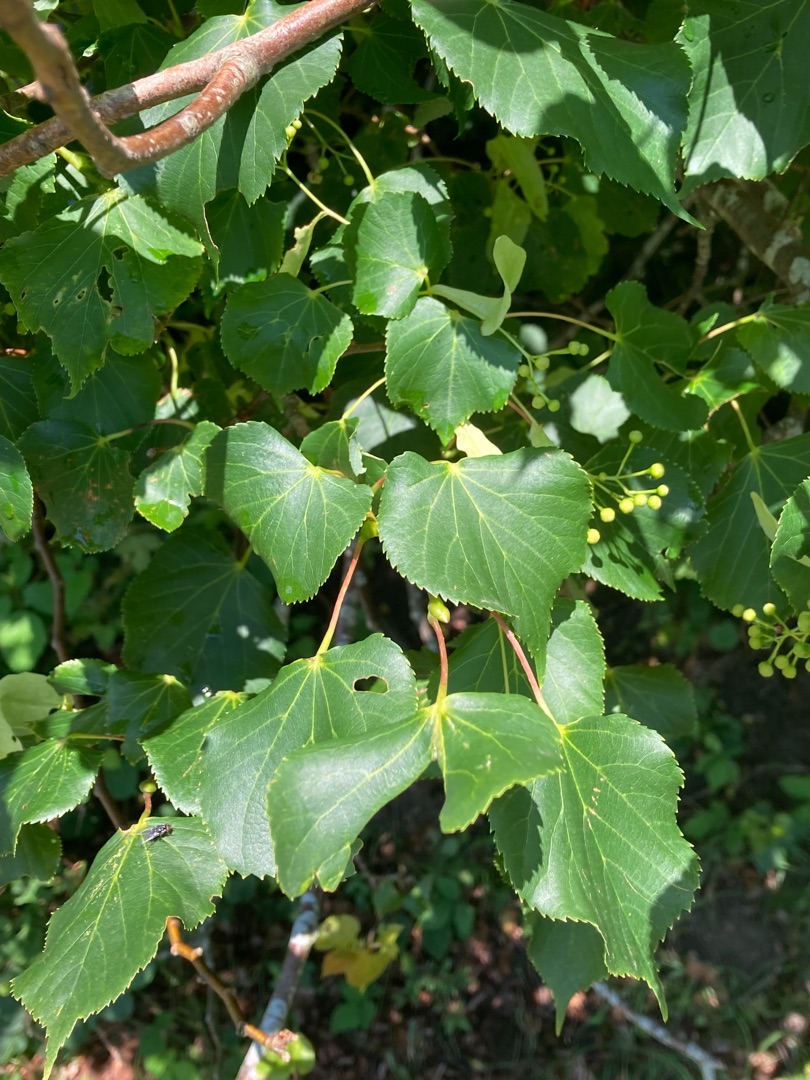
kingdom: Plantae
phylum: Tracheophyta
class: Magnoliopsida
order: Malvales
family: Malvaceae
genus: Tilia
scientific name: Tilia cordata
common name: Småbladet lind
